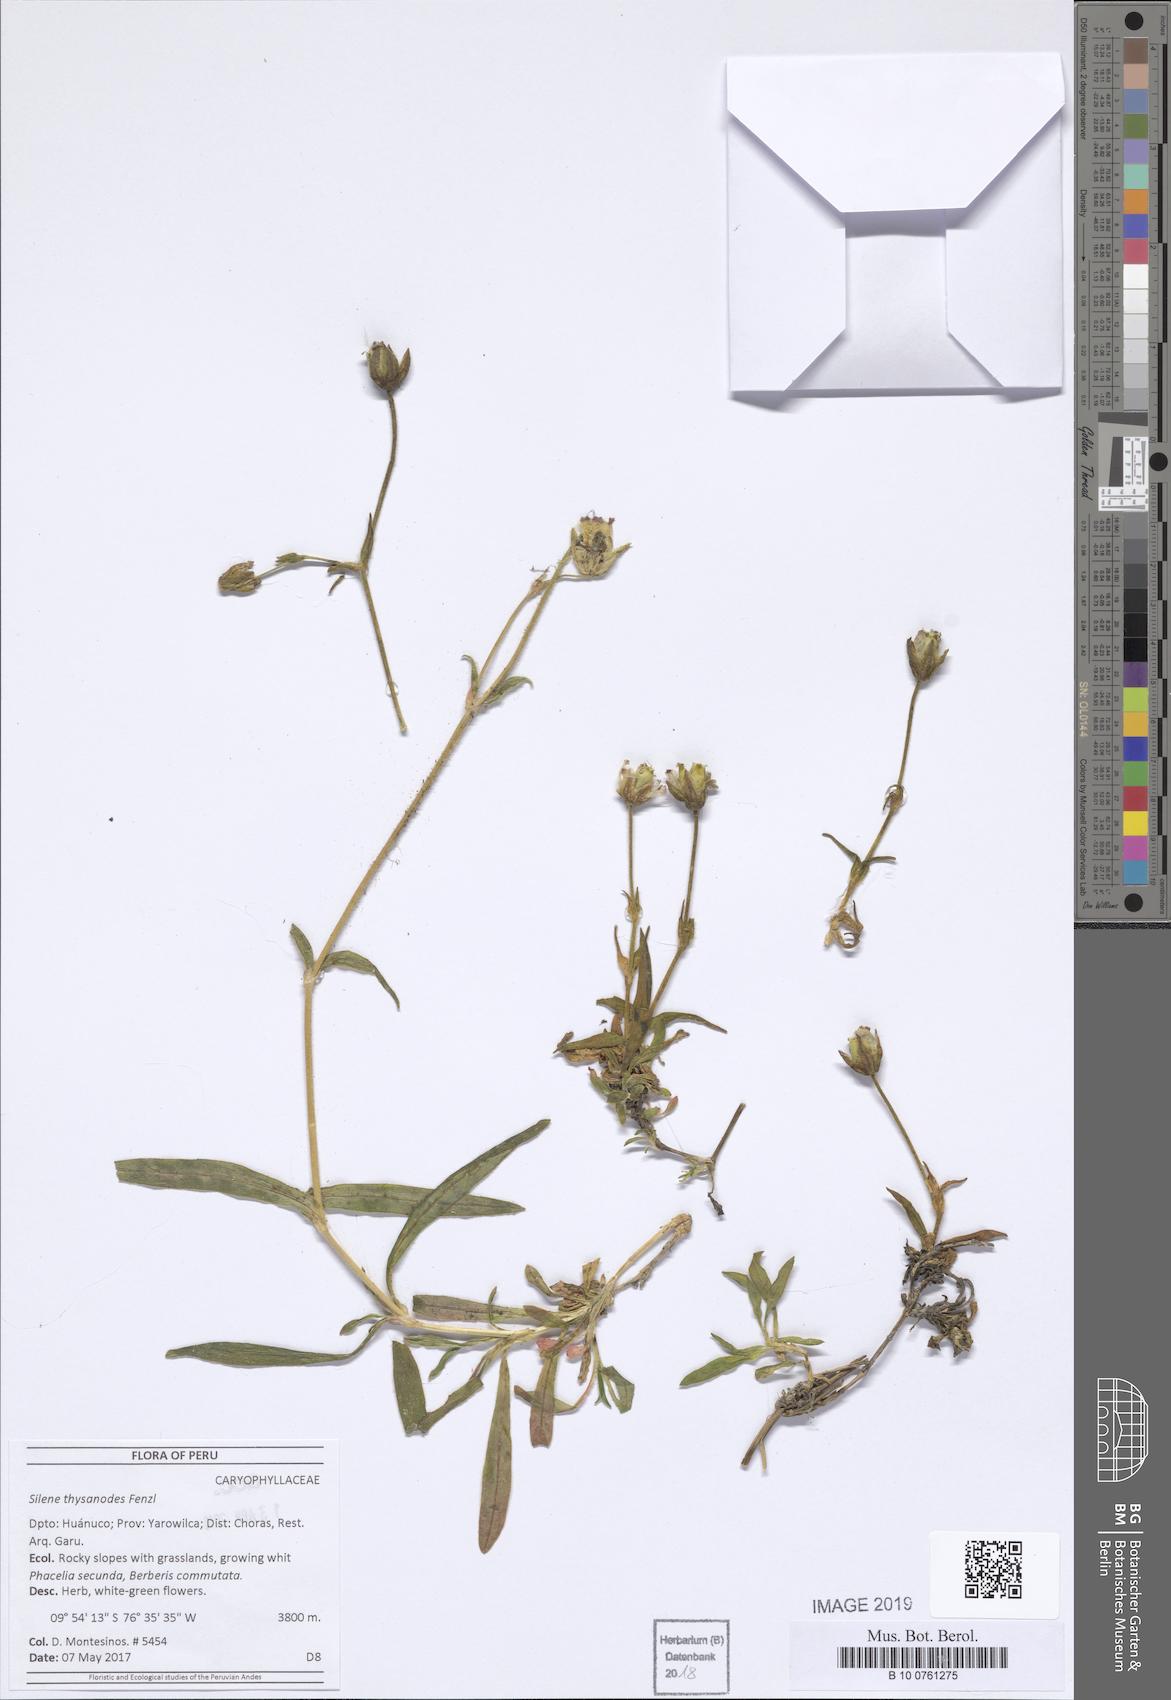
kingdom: Plantae
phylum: Tracheophyta
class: Magnoliopsida
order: Caryophyllales
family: Caryophyllaceae
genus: Silene
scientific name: Silene thysanodes
